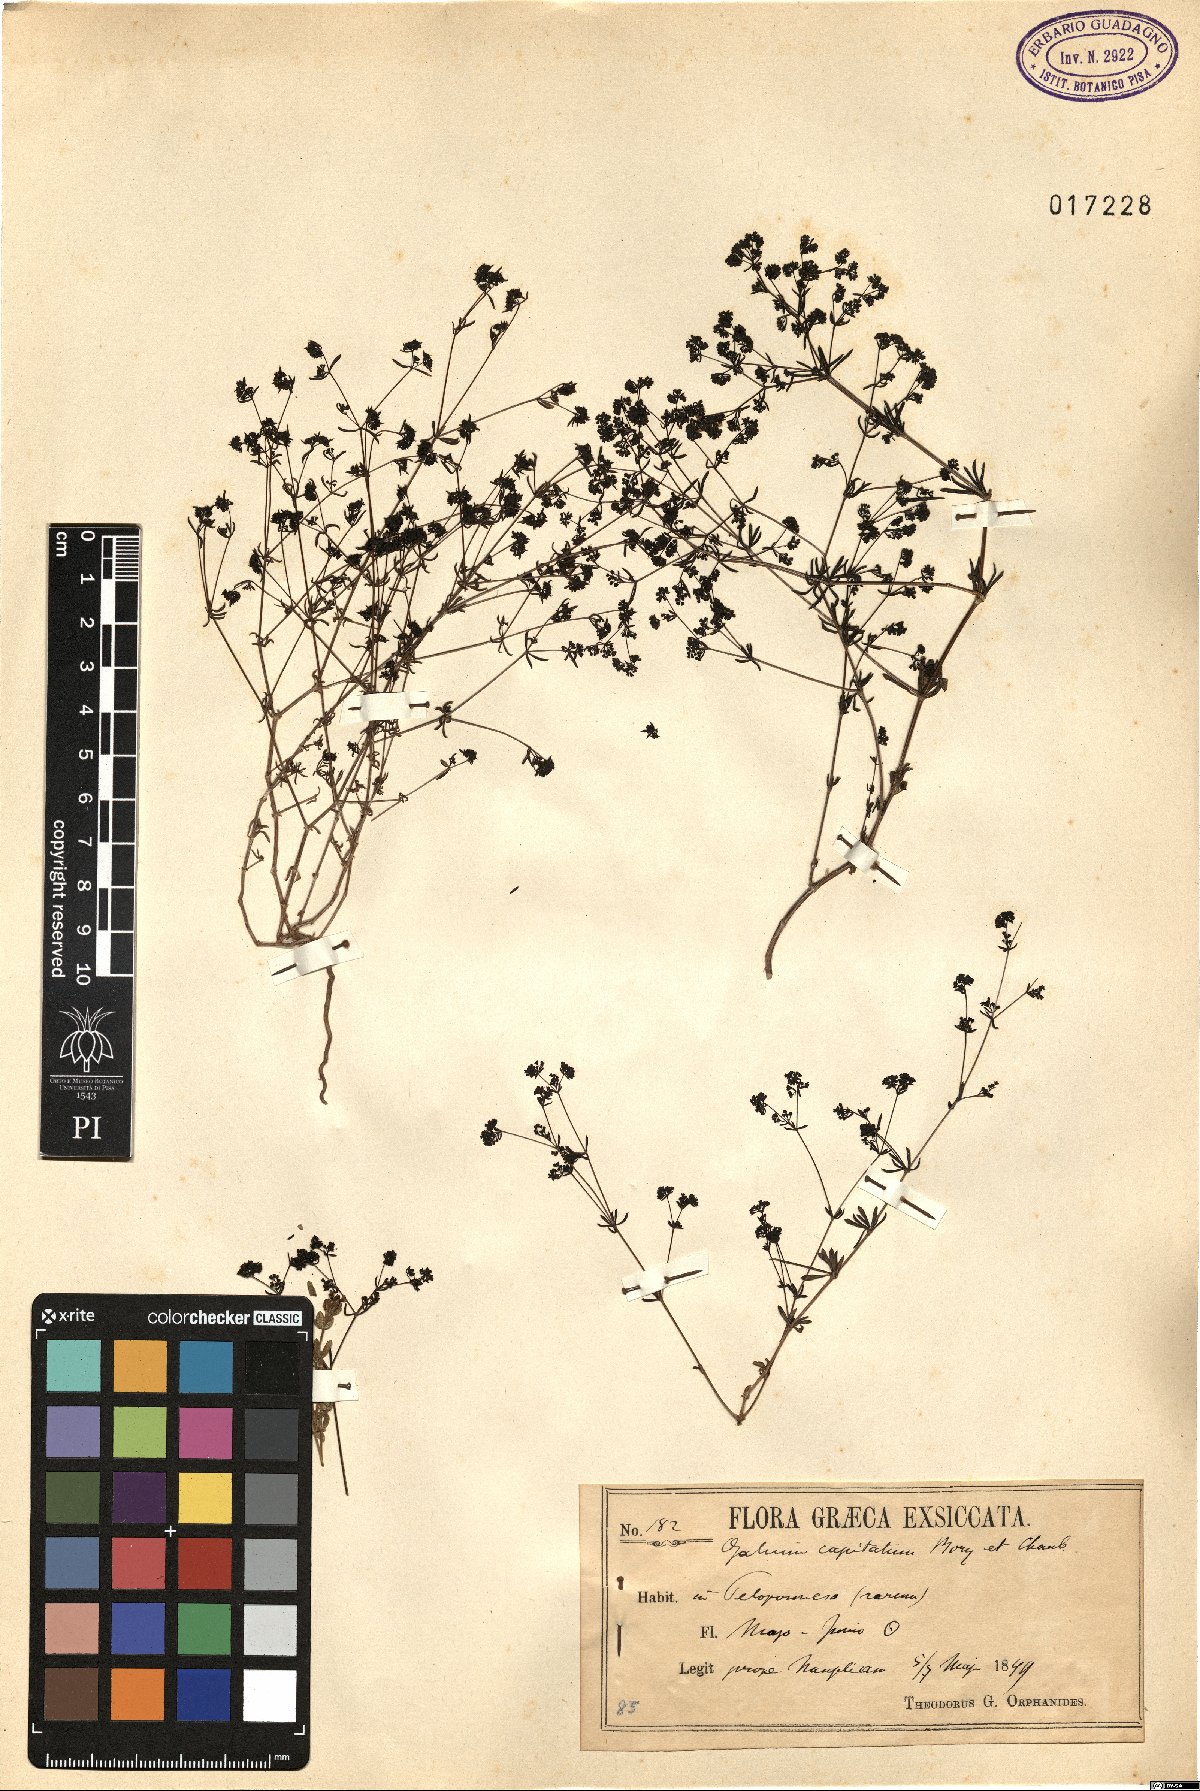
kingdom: Plantae
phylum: Tracheophyta
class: Magnoliopsida
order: Gentianales
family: Rubiaceae
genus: Galium
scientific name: Galium capitatum
